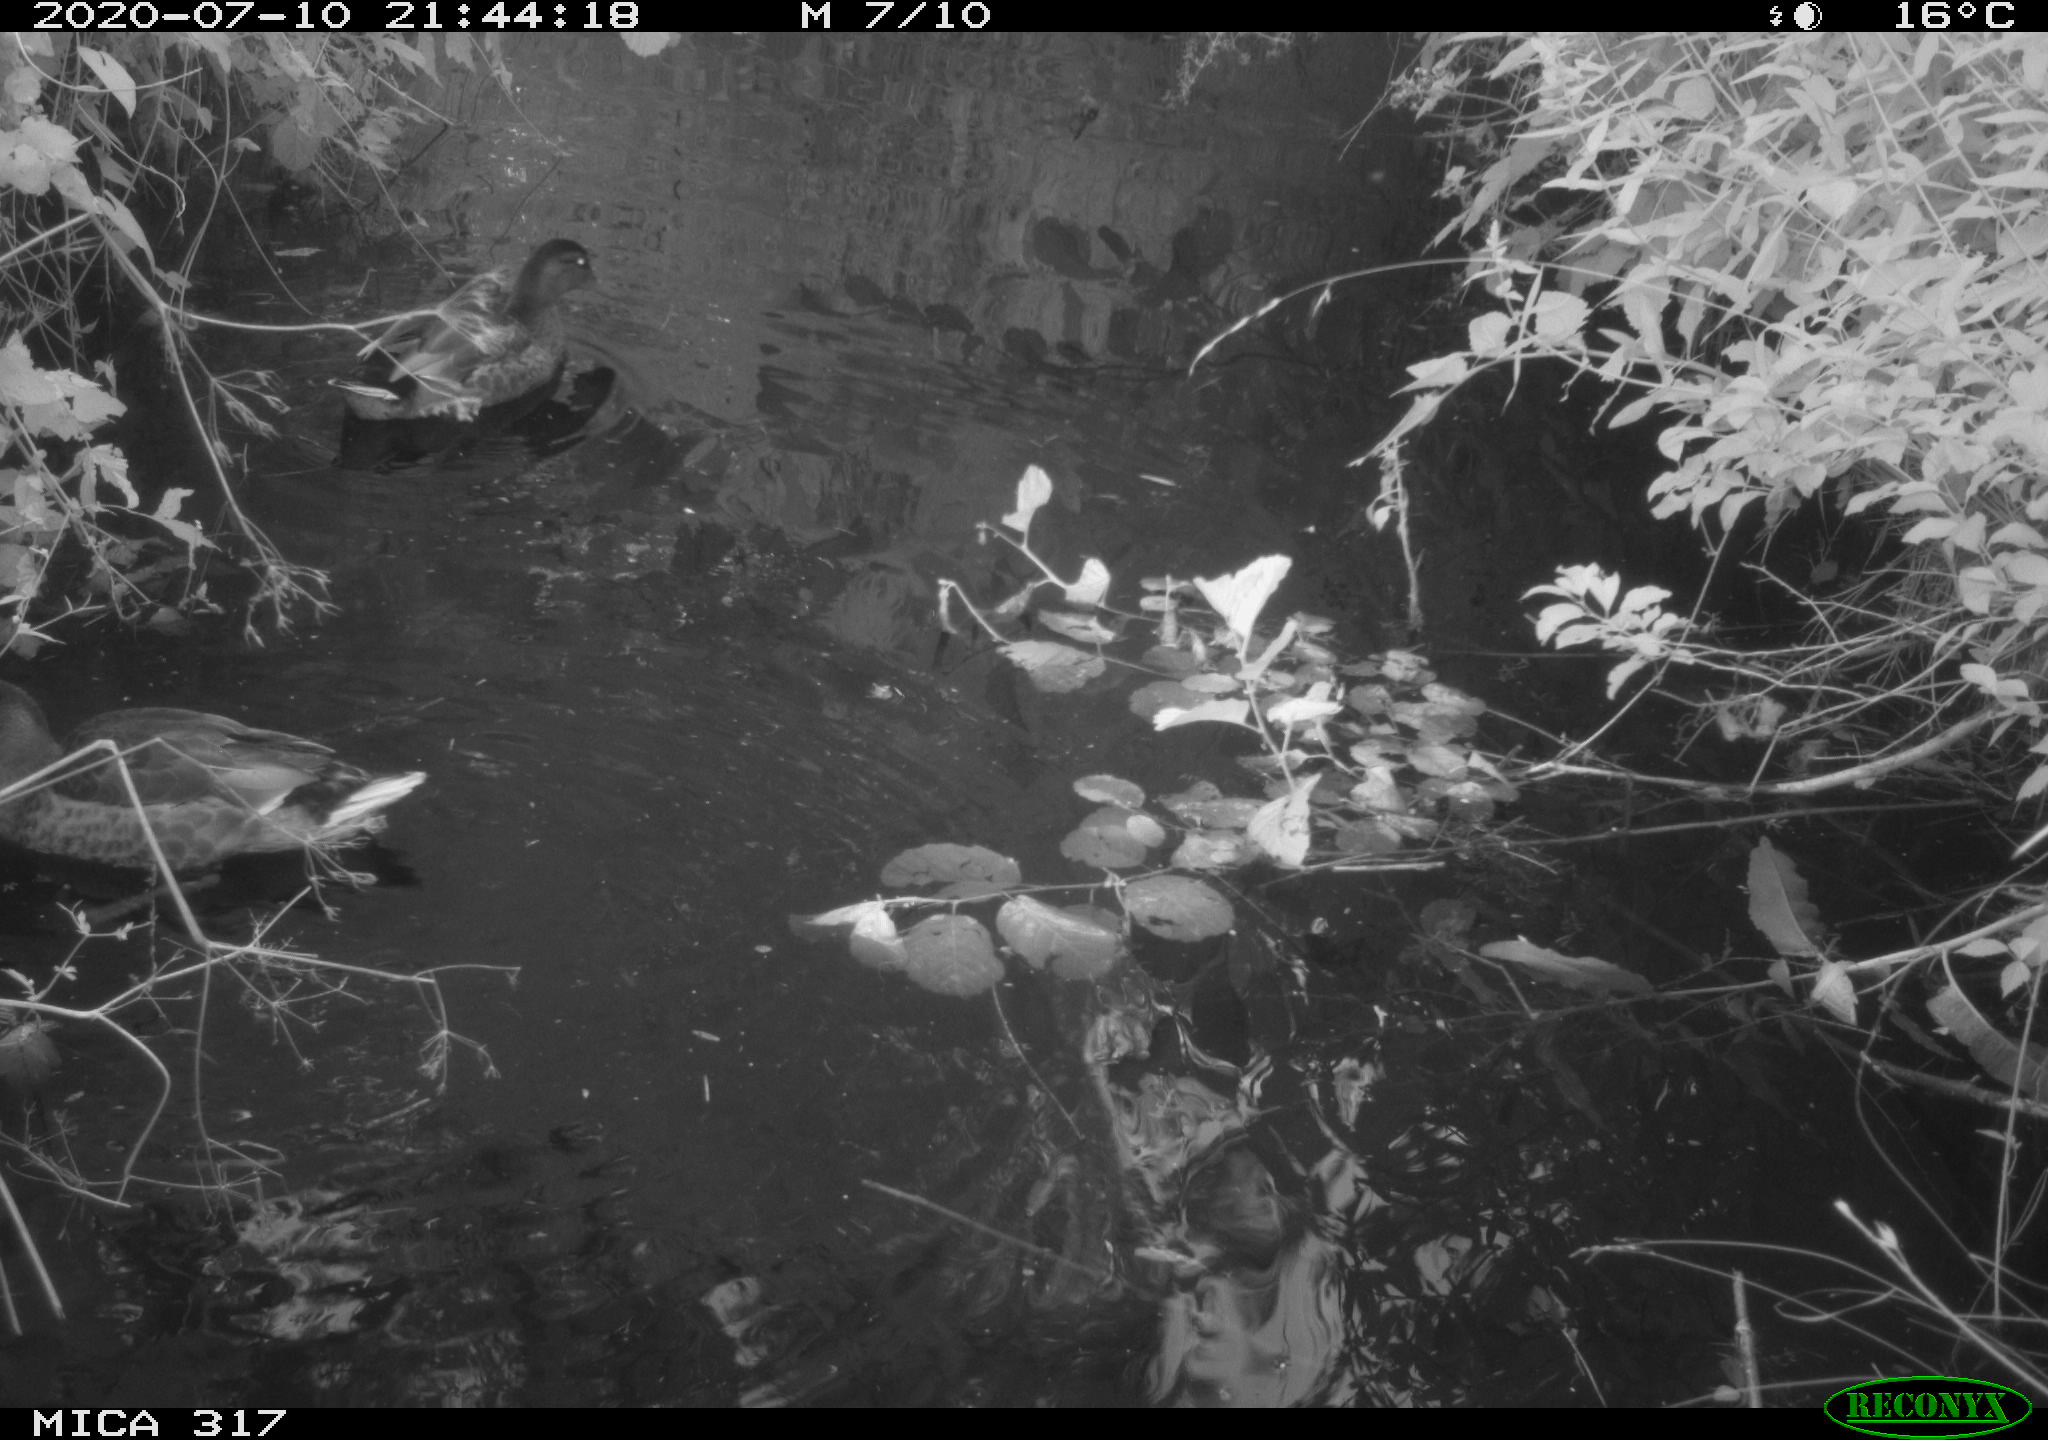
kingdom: Animalia
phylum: Chordata
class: Aves
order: Anseriformes
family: Anatidae
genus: Anas
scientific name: Anas platyrhynchos
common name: Mallard
